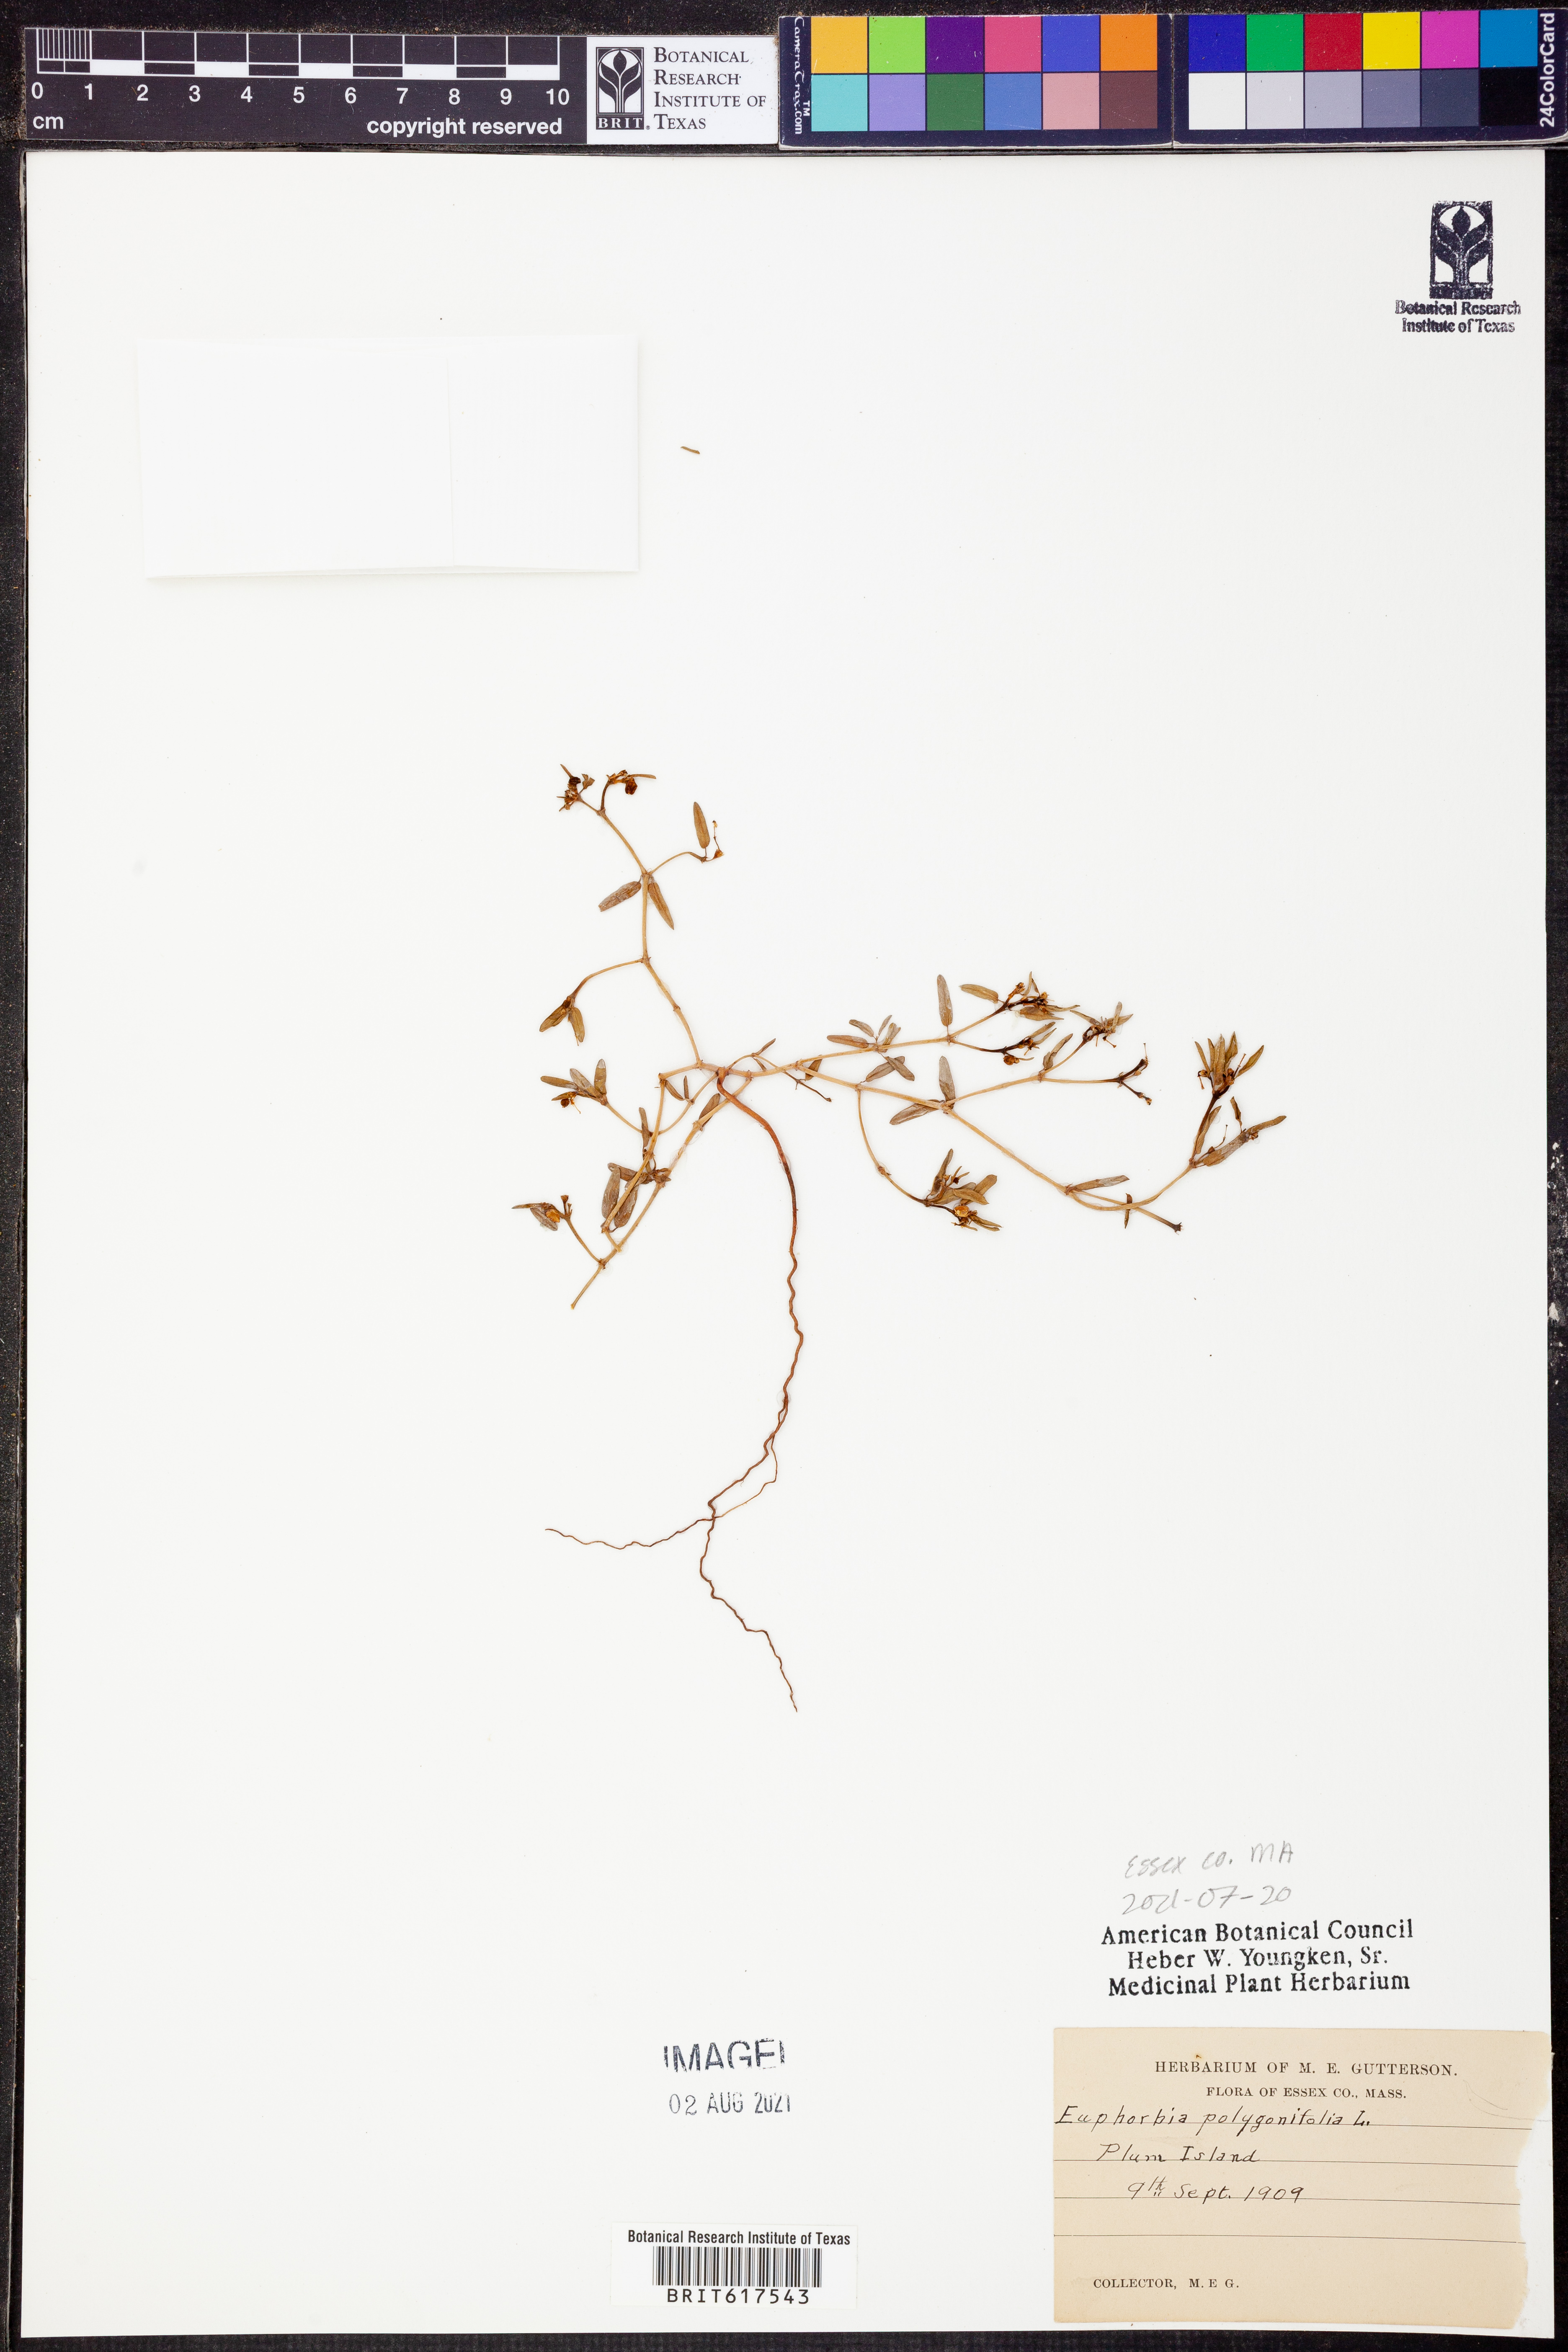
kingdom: Plantae
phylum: Tracheophyta
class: Magnoliopsida
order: Malpighiales
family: Euphorbiaceae
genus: Euphorbia
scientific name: Euphorbia polygonifolia
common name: Knotweed spurge
